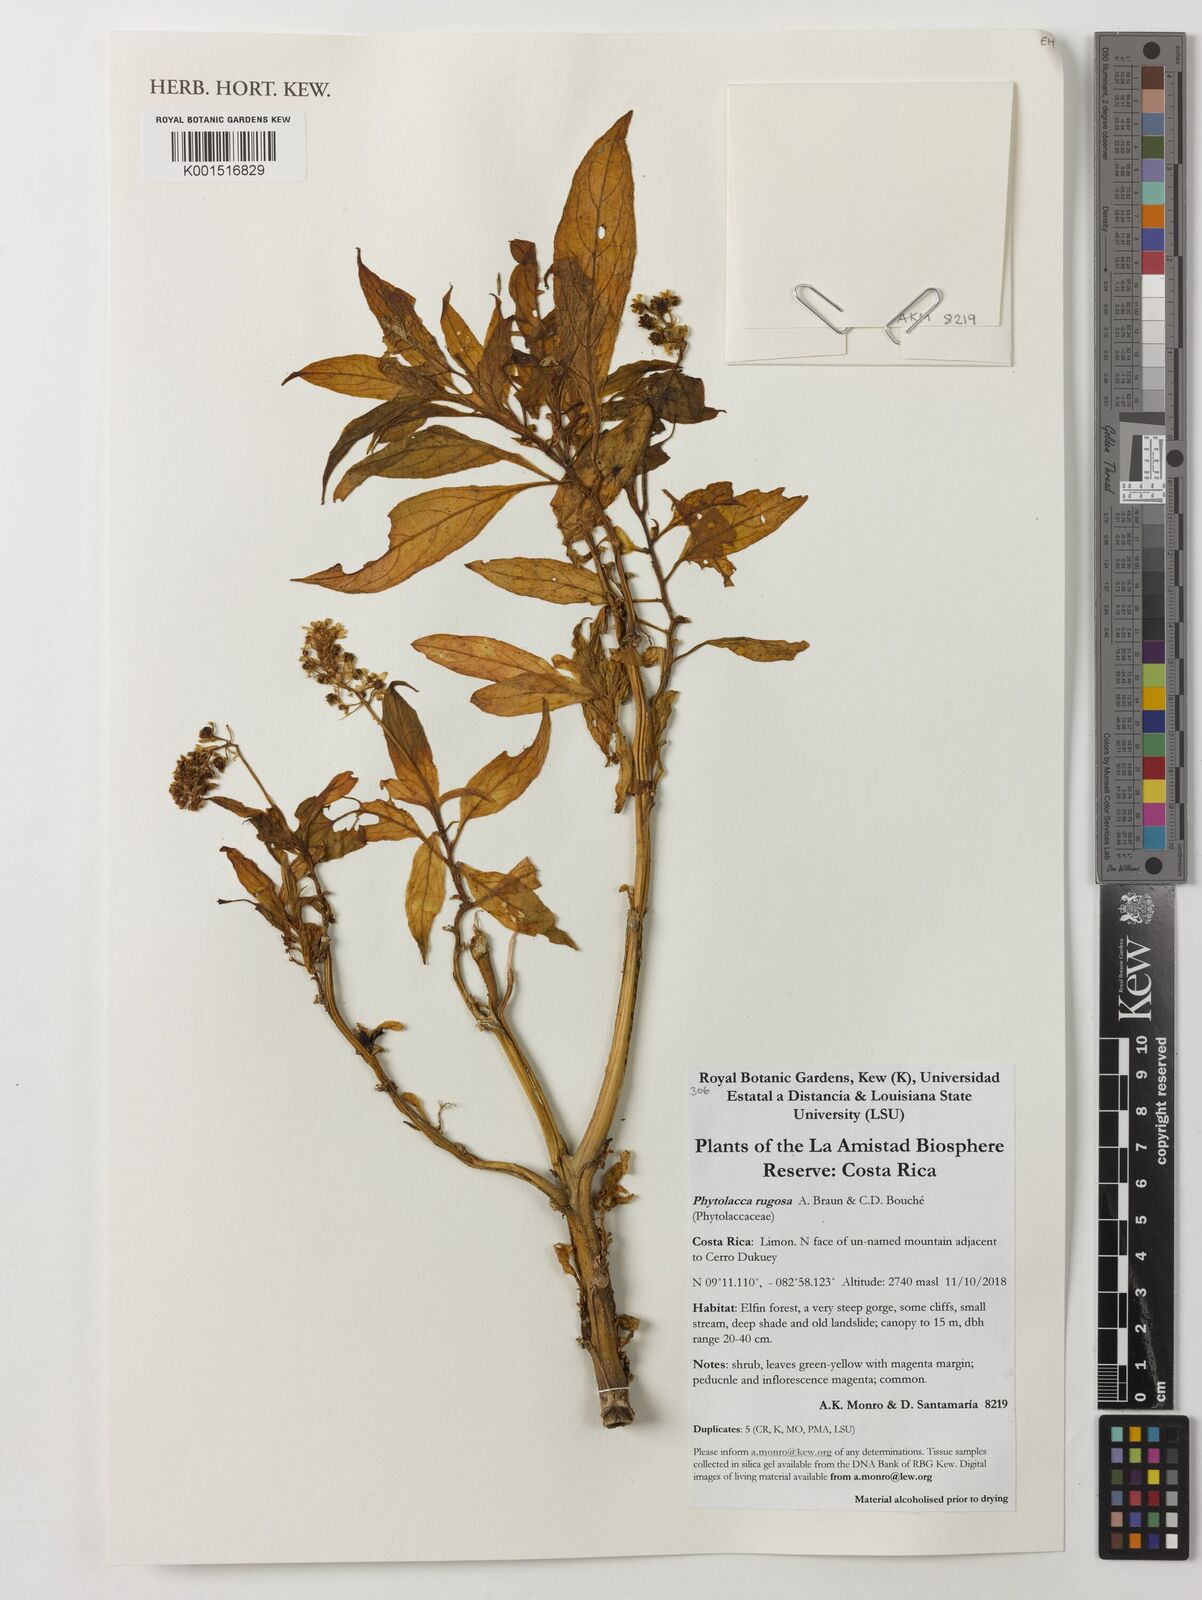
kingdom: Plantae
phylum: Tracheophyta
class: Magnoliopsida
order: Caryophyllales
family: Phytolaccaceae
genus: Phytolacca
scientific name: Phytolacca rugosa
